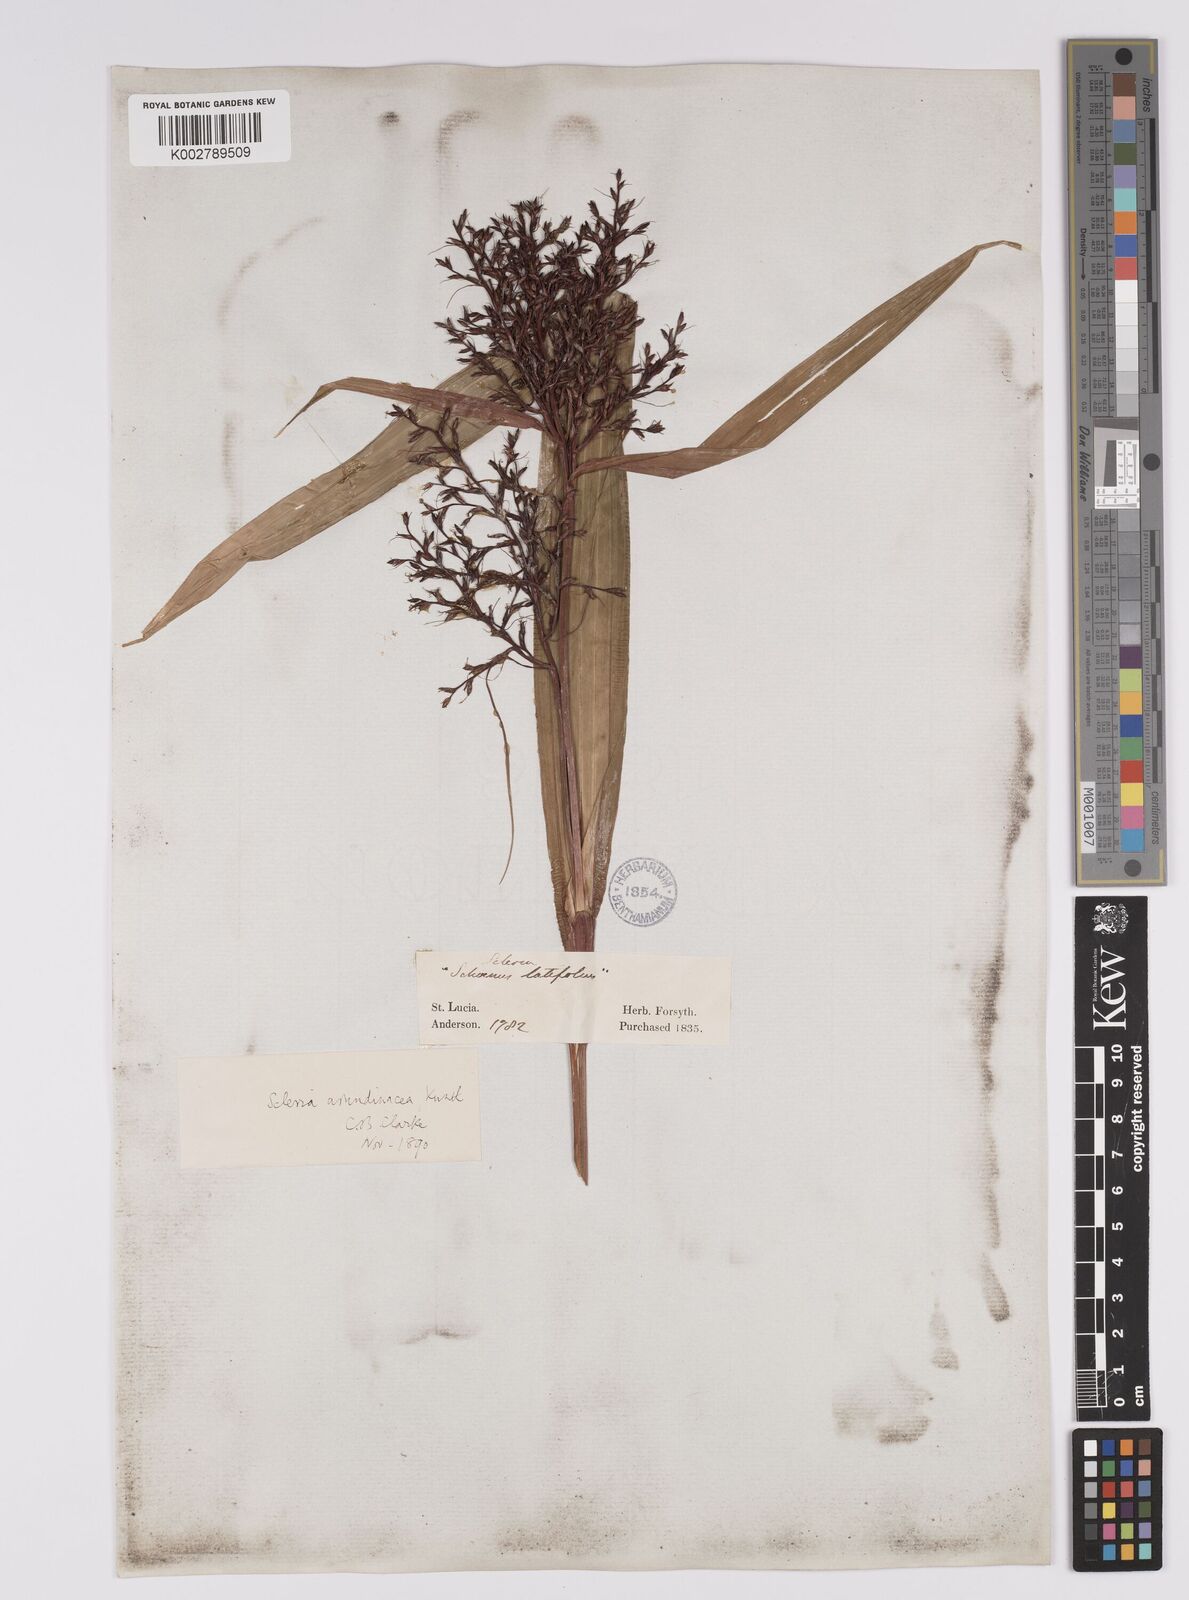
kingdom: Plantae
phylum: Tracheophyta
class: Liliopsida
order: Poales
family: Cyperaceae
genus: Scleria
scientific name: Scleria latifolia
